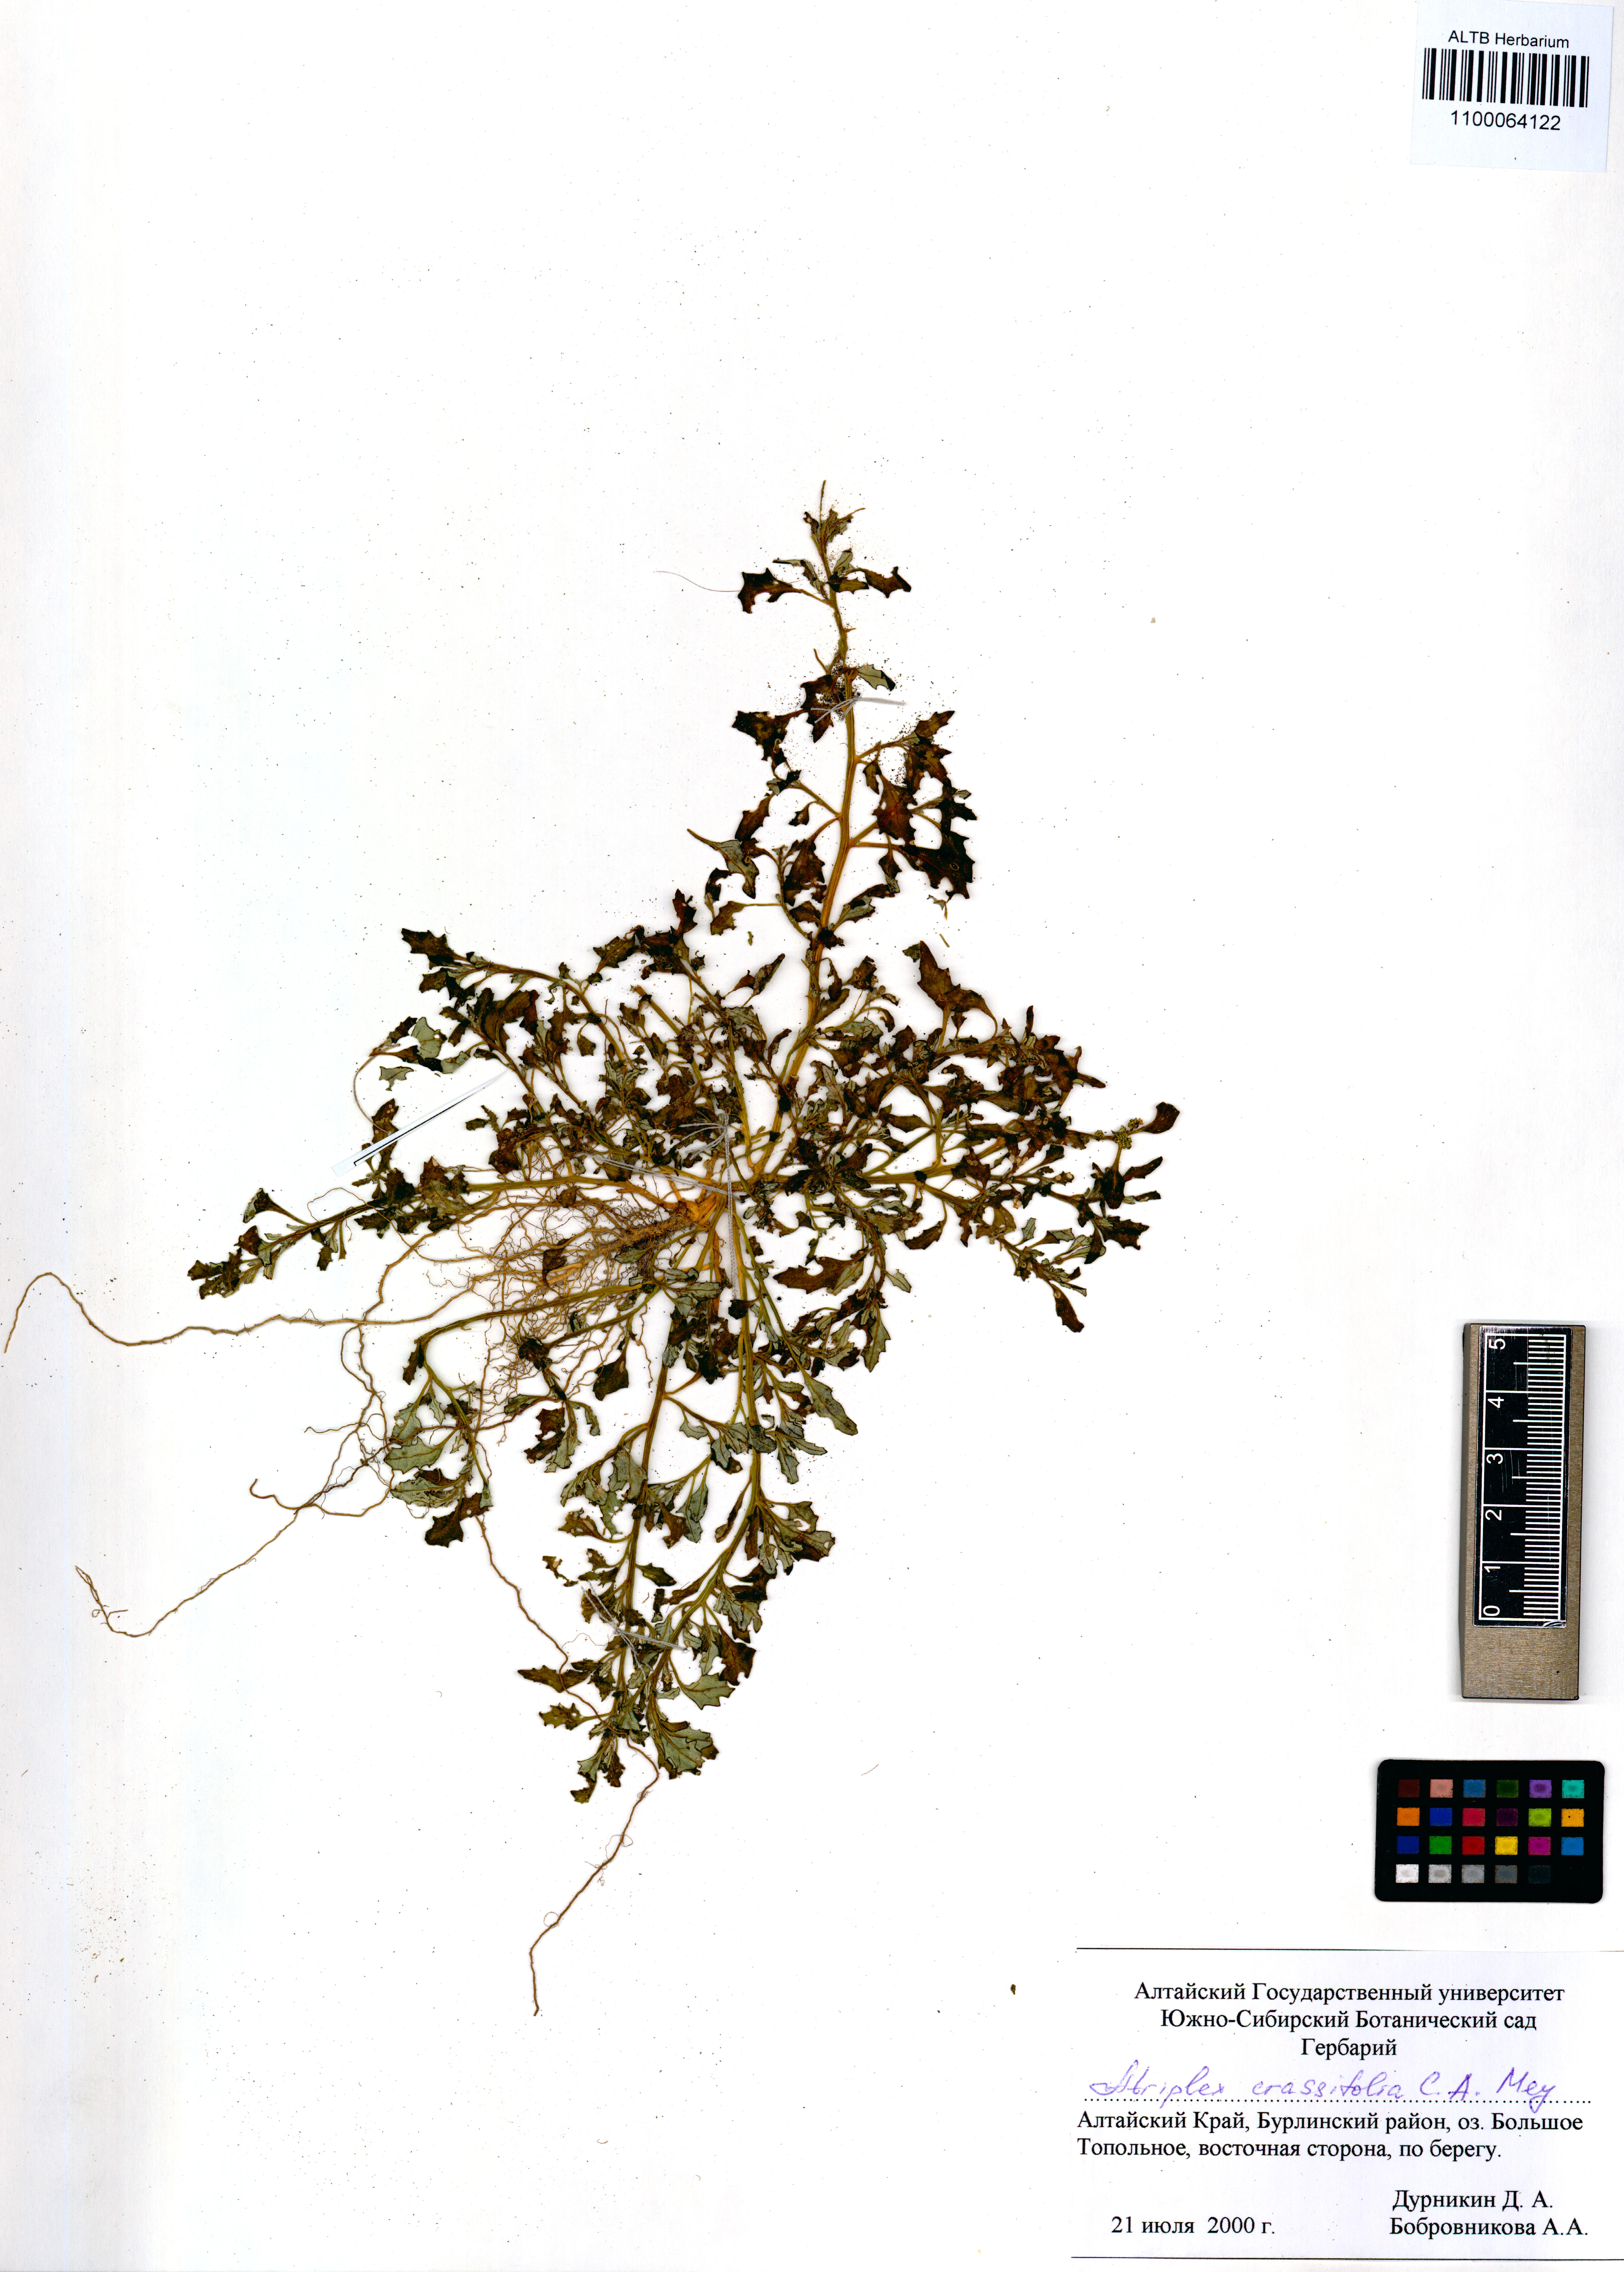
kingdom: Plantae
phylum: Tracheophyta
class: Magnoliopsida
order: Caryophyllales
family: Amaranthaceae
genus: Atriplex
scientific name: Atriplex crassifolia
